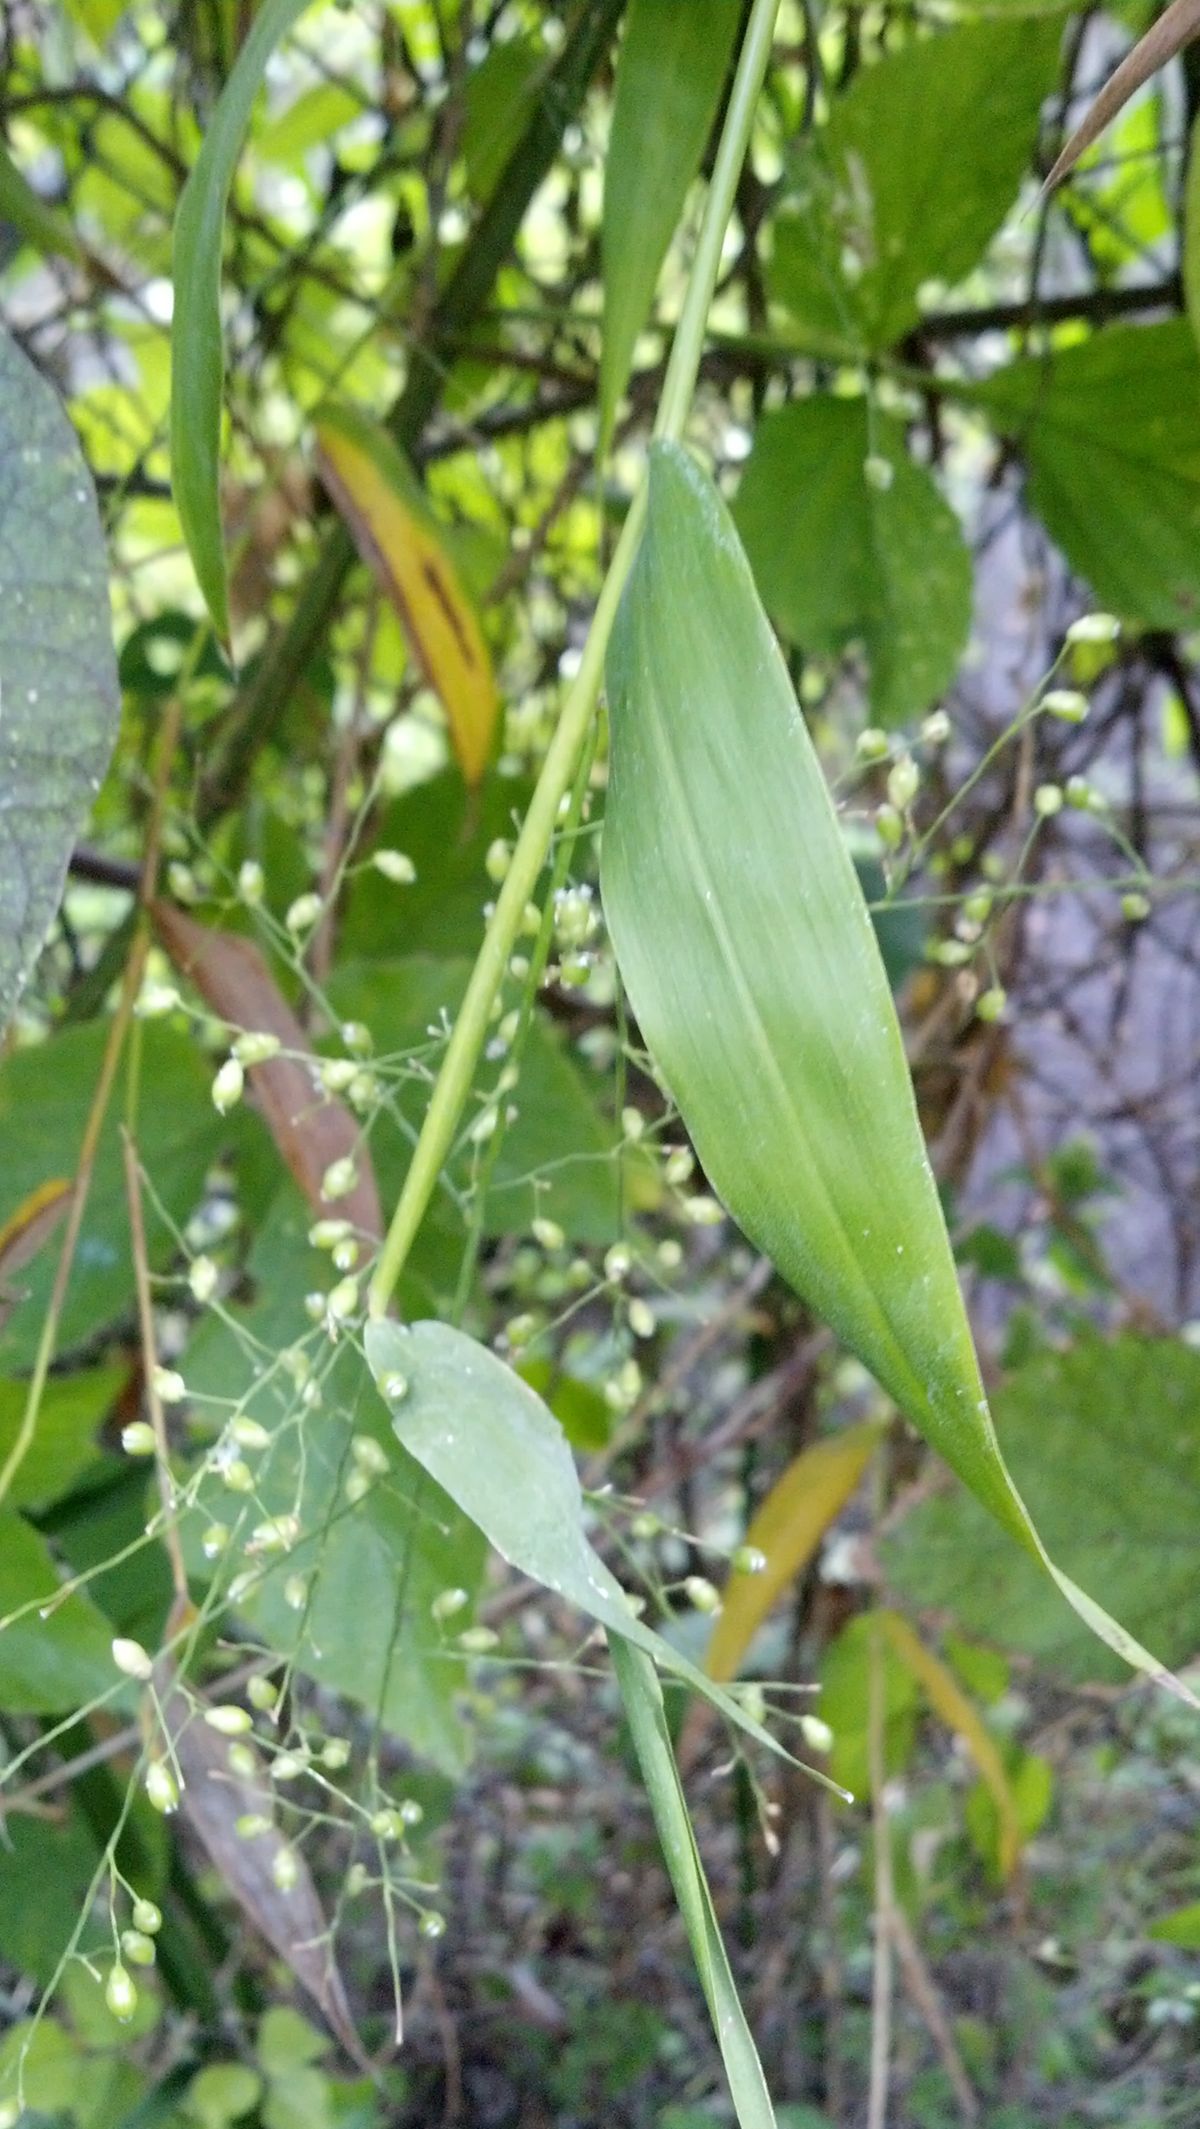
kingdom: Plantae
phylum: Tracheophyta
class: Liliopsida
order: Poales
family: Poaceae
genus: Lasiacis
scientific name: Lasiacis
